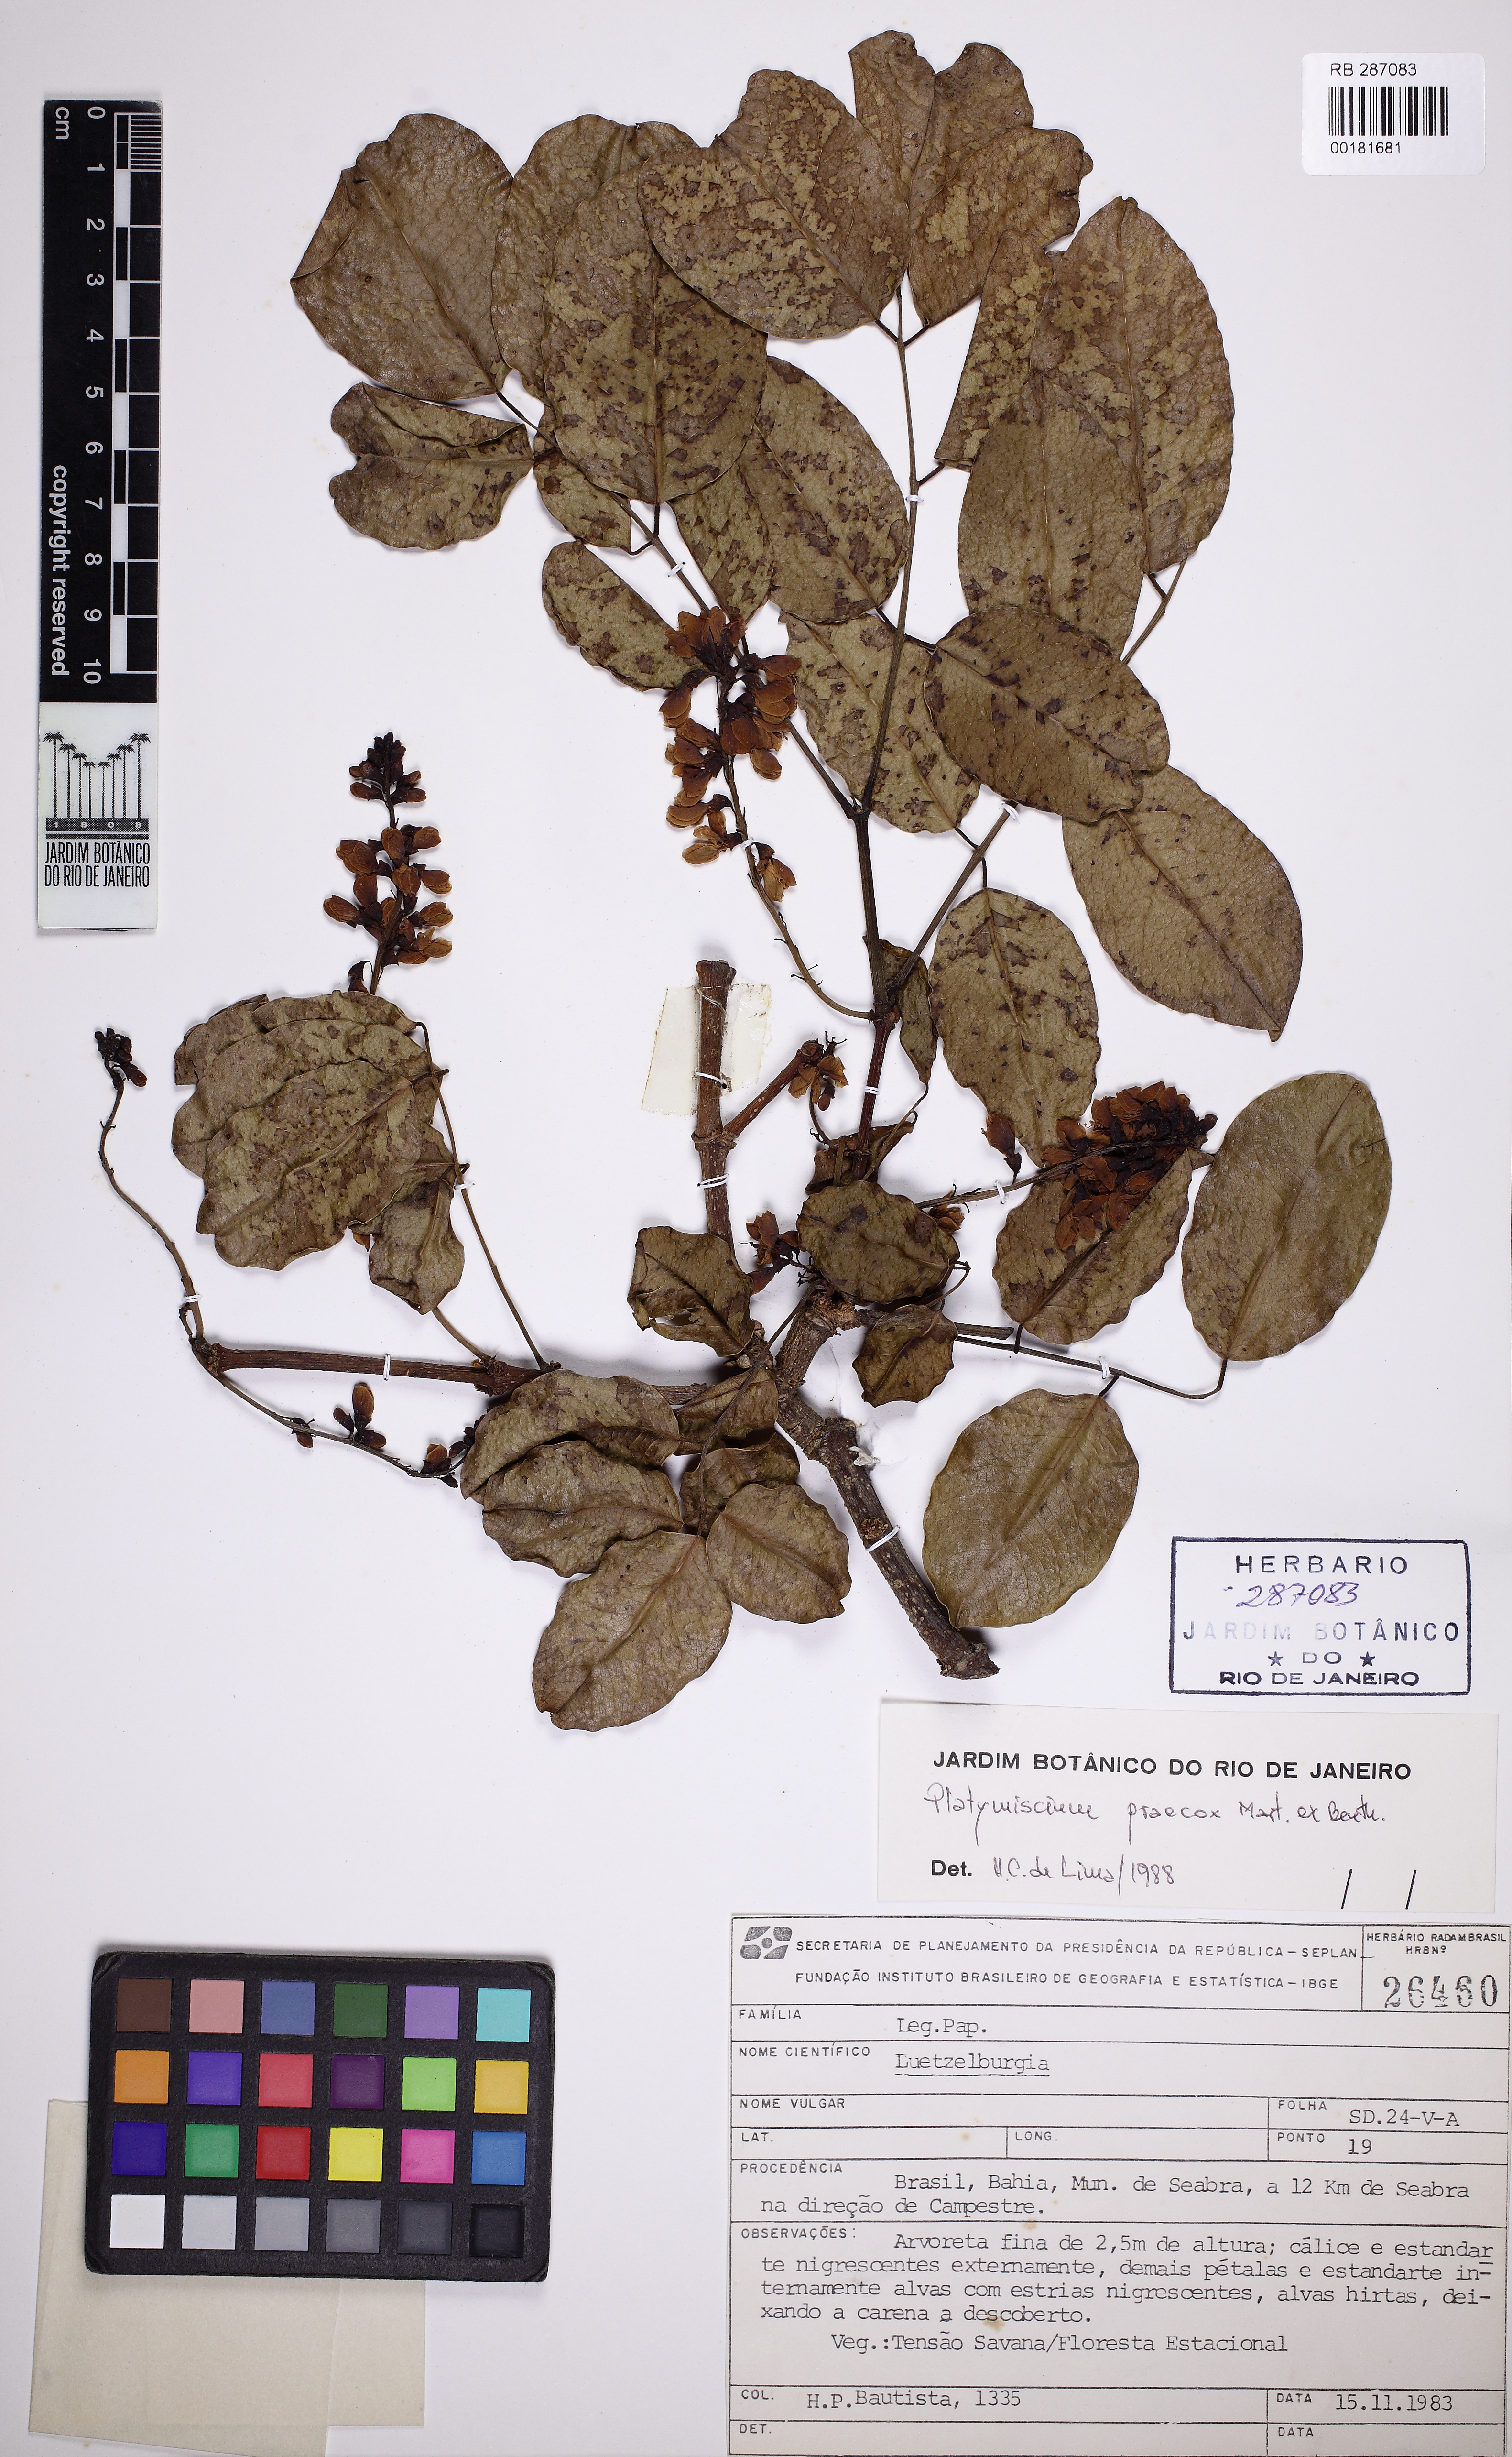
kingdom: Plantae
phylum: Tracheophyta
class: Magnoliopsida
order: Fabales
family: Fabaceae
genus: Platymiscium
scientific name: Platymiscium floribundum
